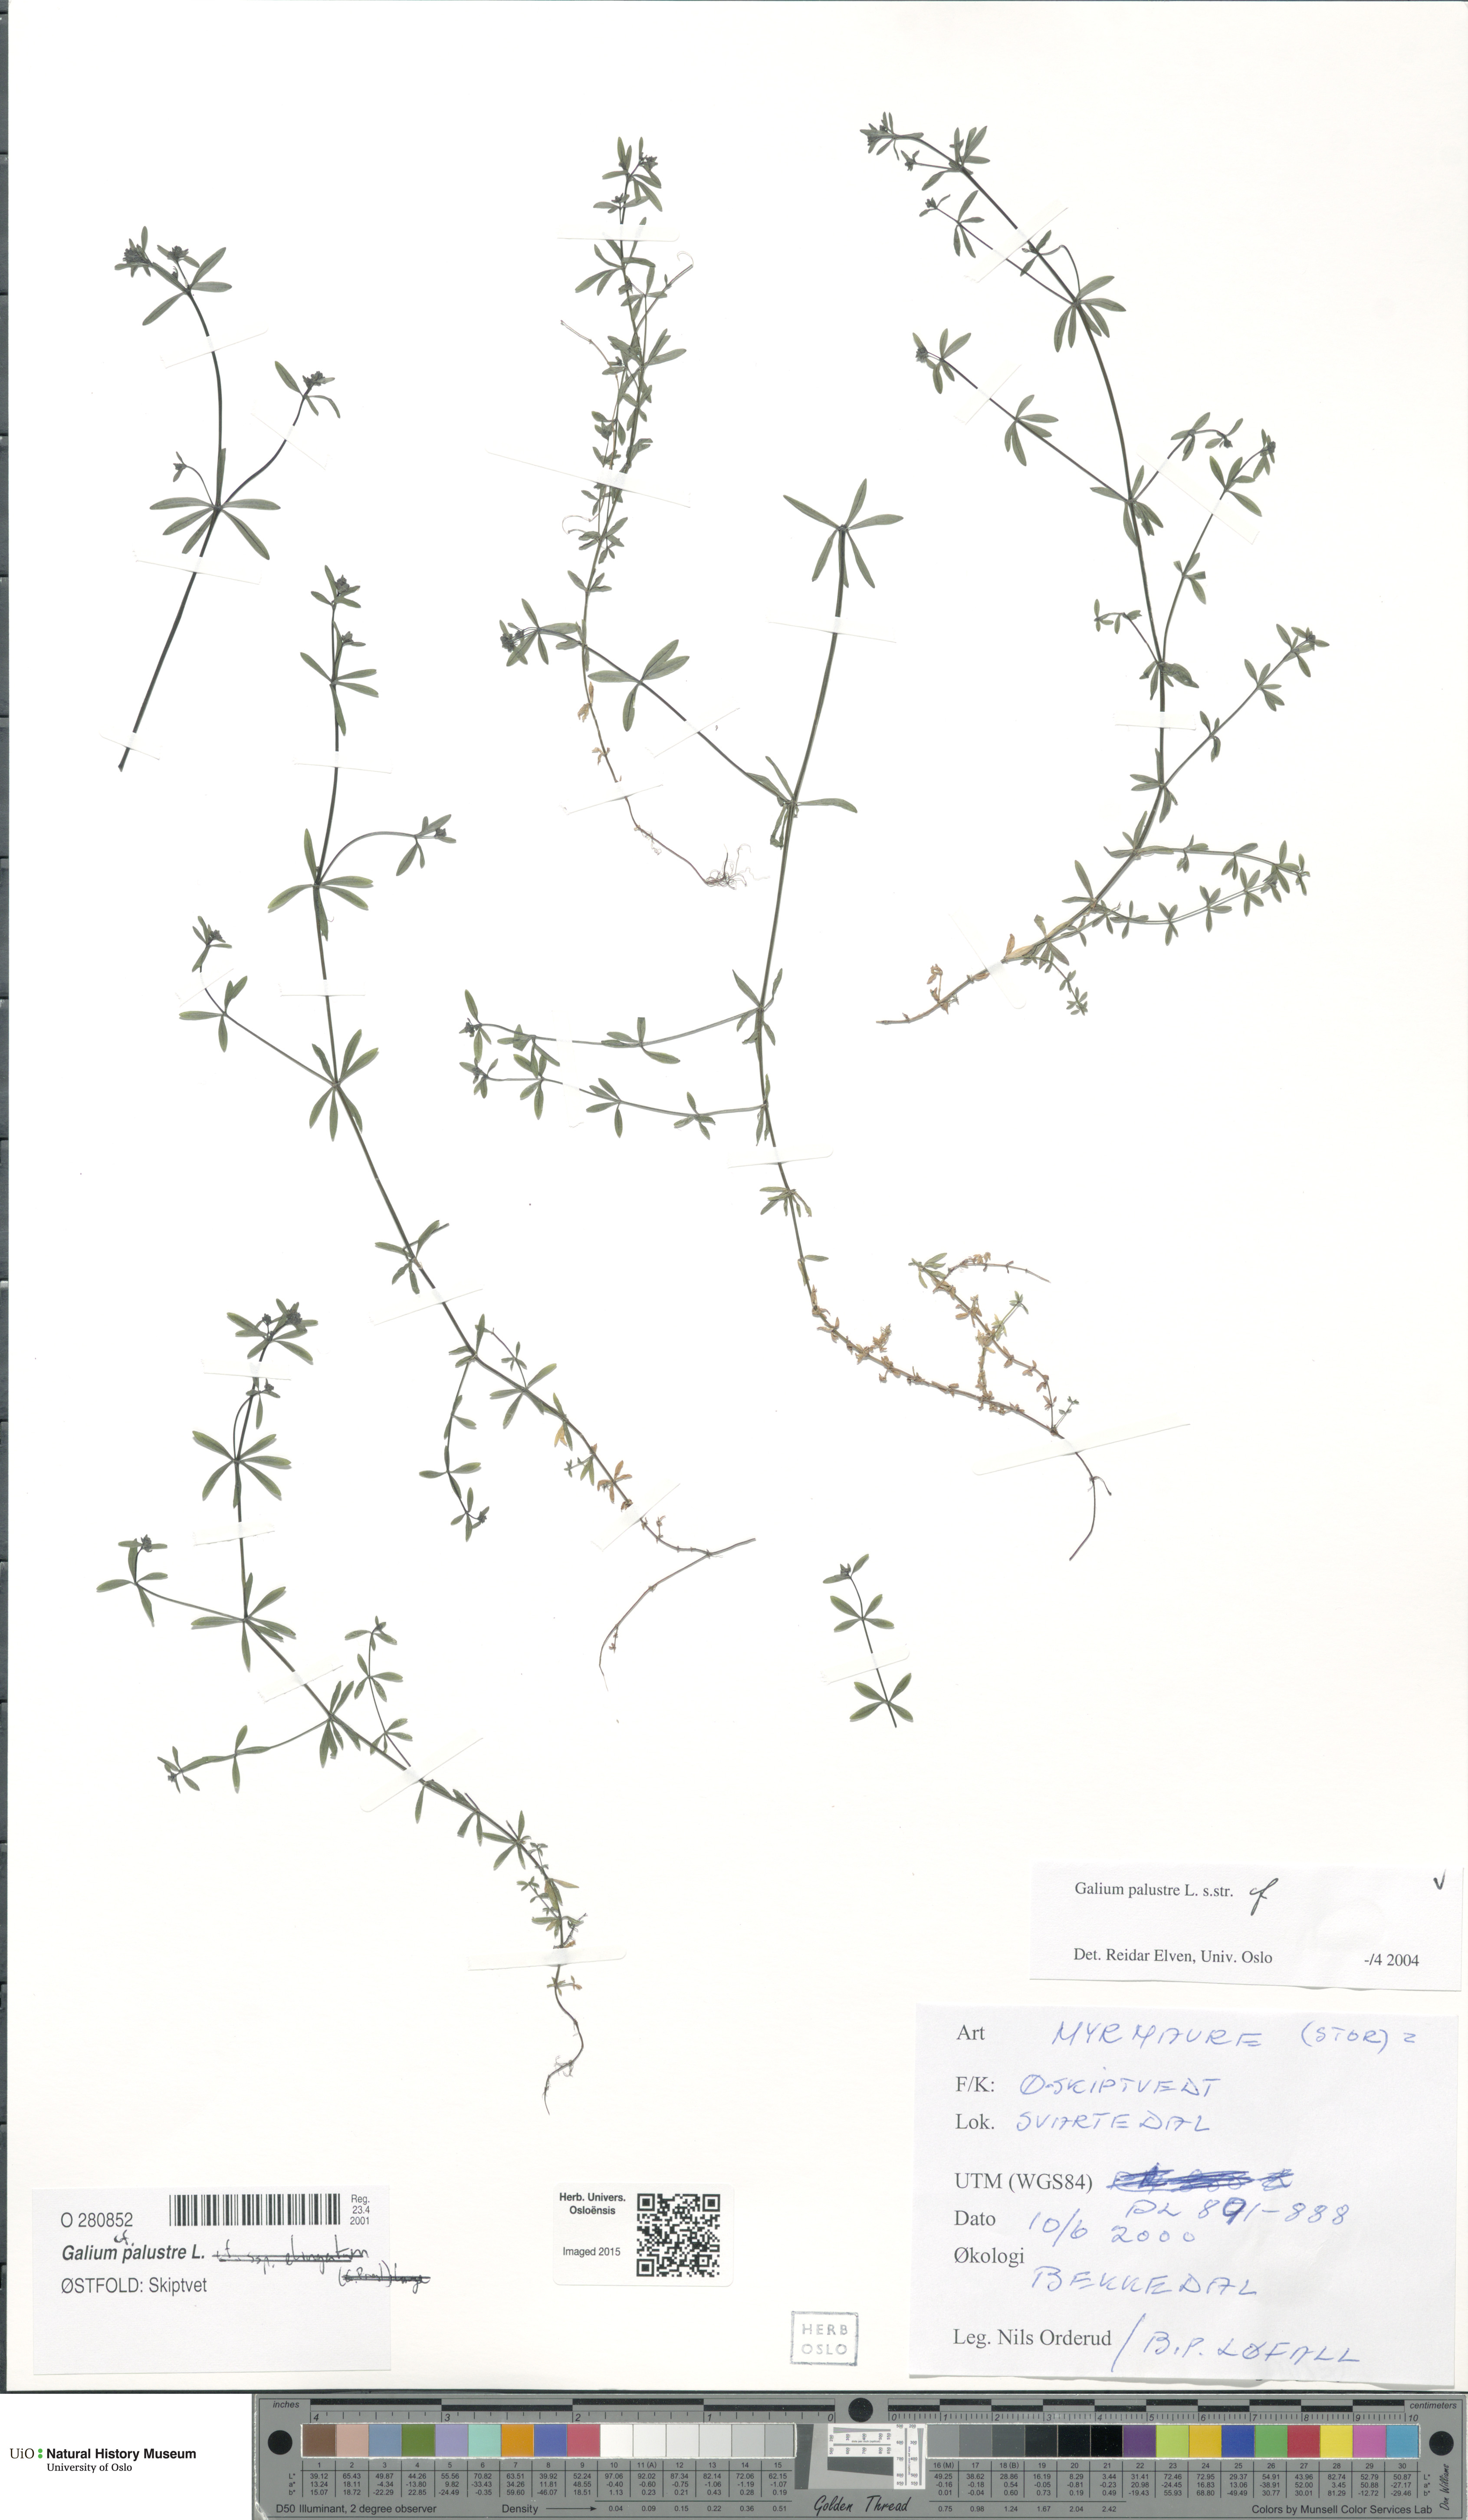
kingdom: Plantae
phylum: Tracheophyta
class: Magnoliopsida
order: Gentianales
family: Rubiaceae
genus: Galium
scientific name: Galium palustre
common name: Common marsh-bedstraw
